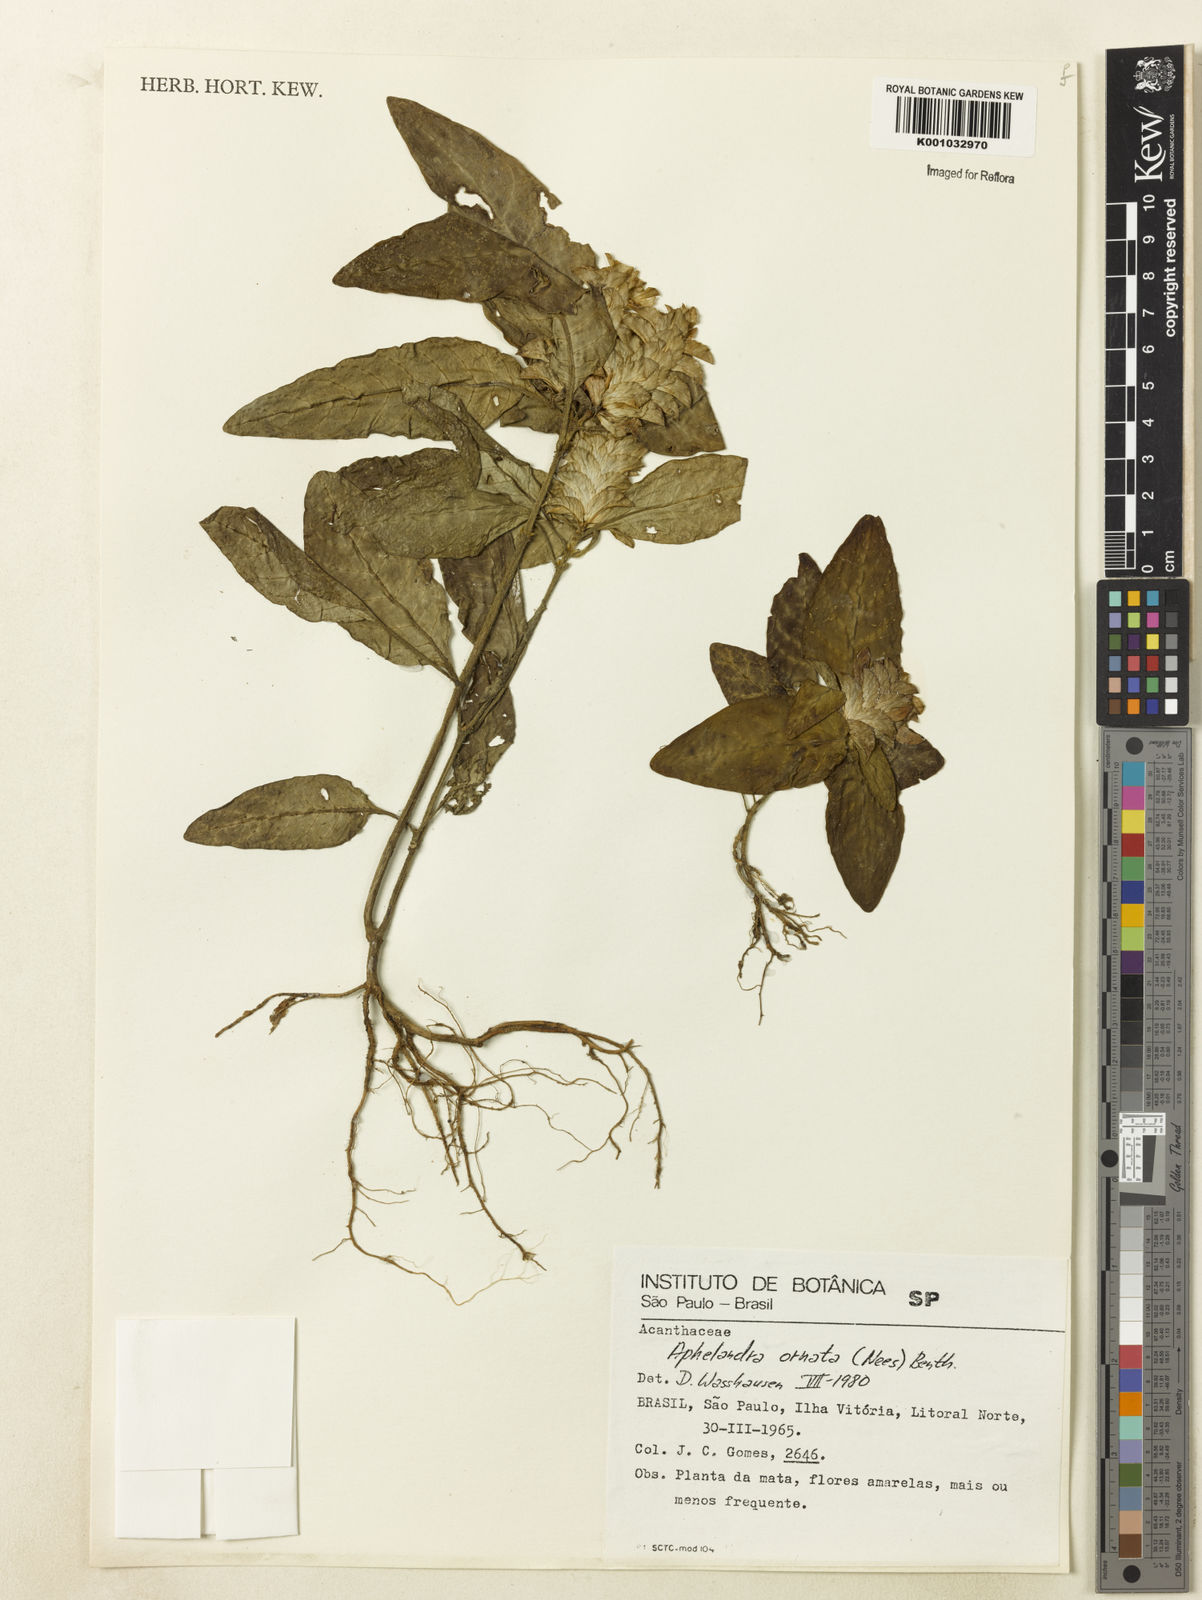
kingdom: Plantae
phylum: Tracheophyta
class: Magnoliopsida
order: Lamiales
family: Acanthaceae
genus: Aphelandra
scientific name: Aphelandra ornata
